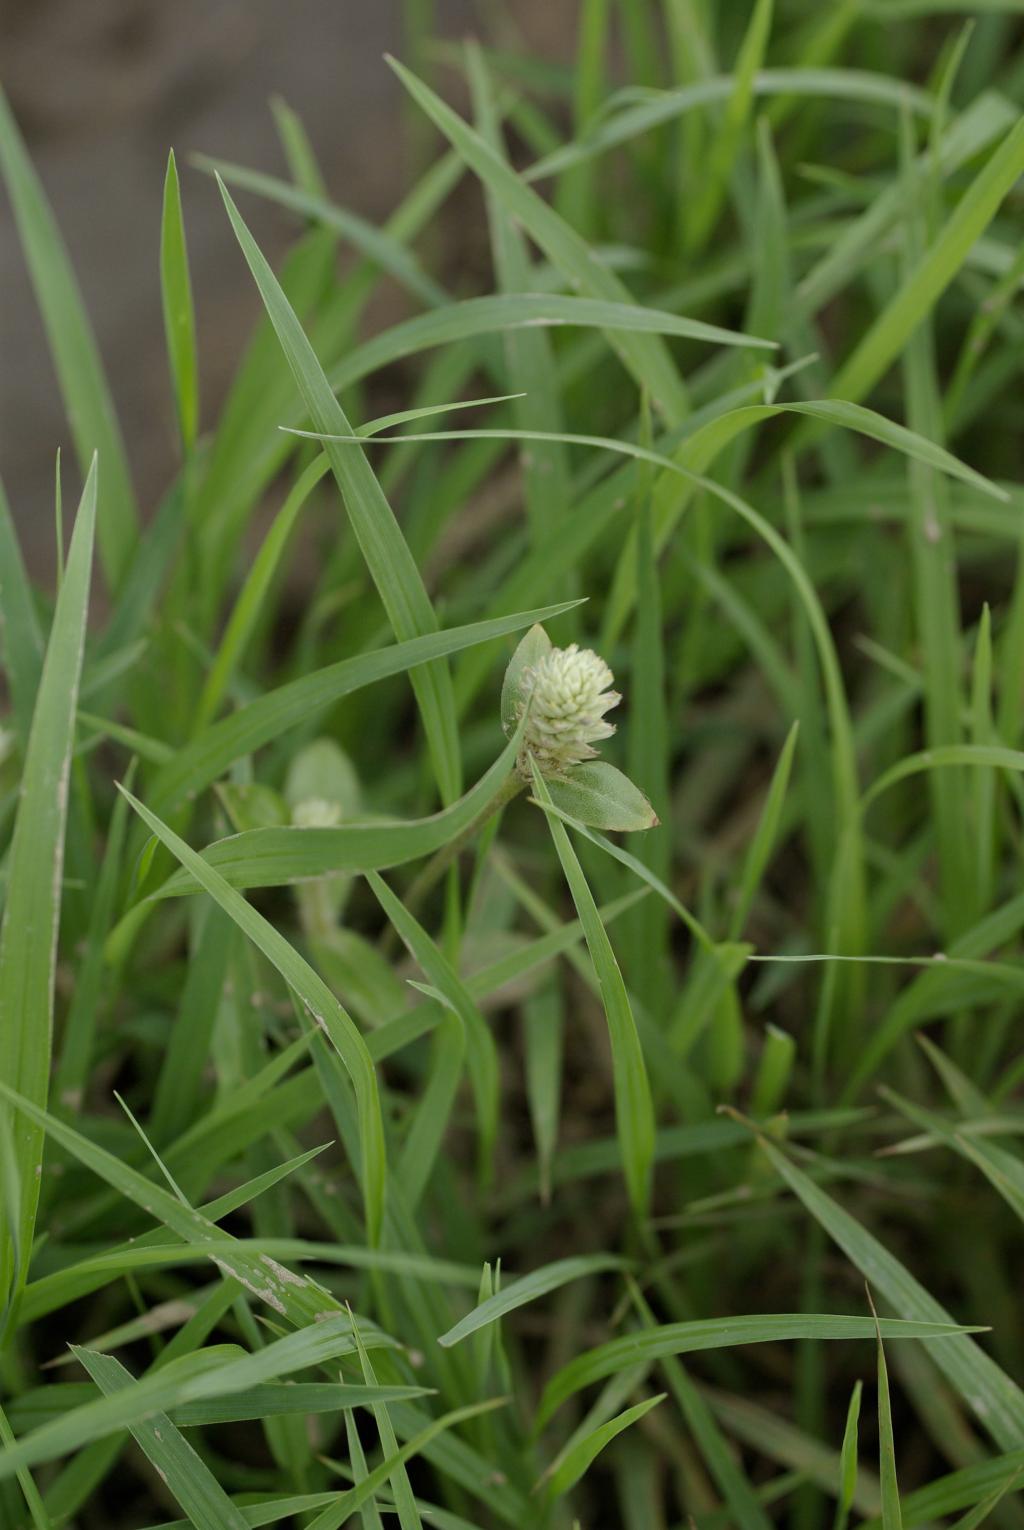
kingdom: Plantae
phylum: Tracheophyta
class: Magnoliopsida
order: Caryophyllales
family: Amaranthaceae
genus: Gomphrena
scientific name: Gomphrena celosioides
